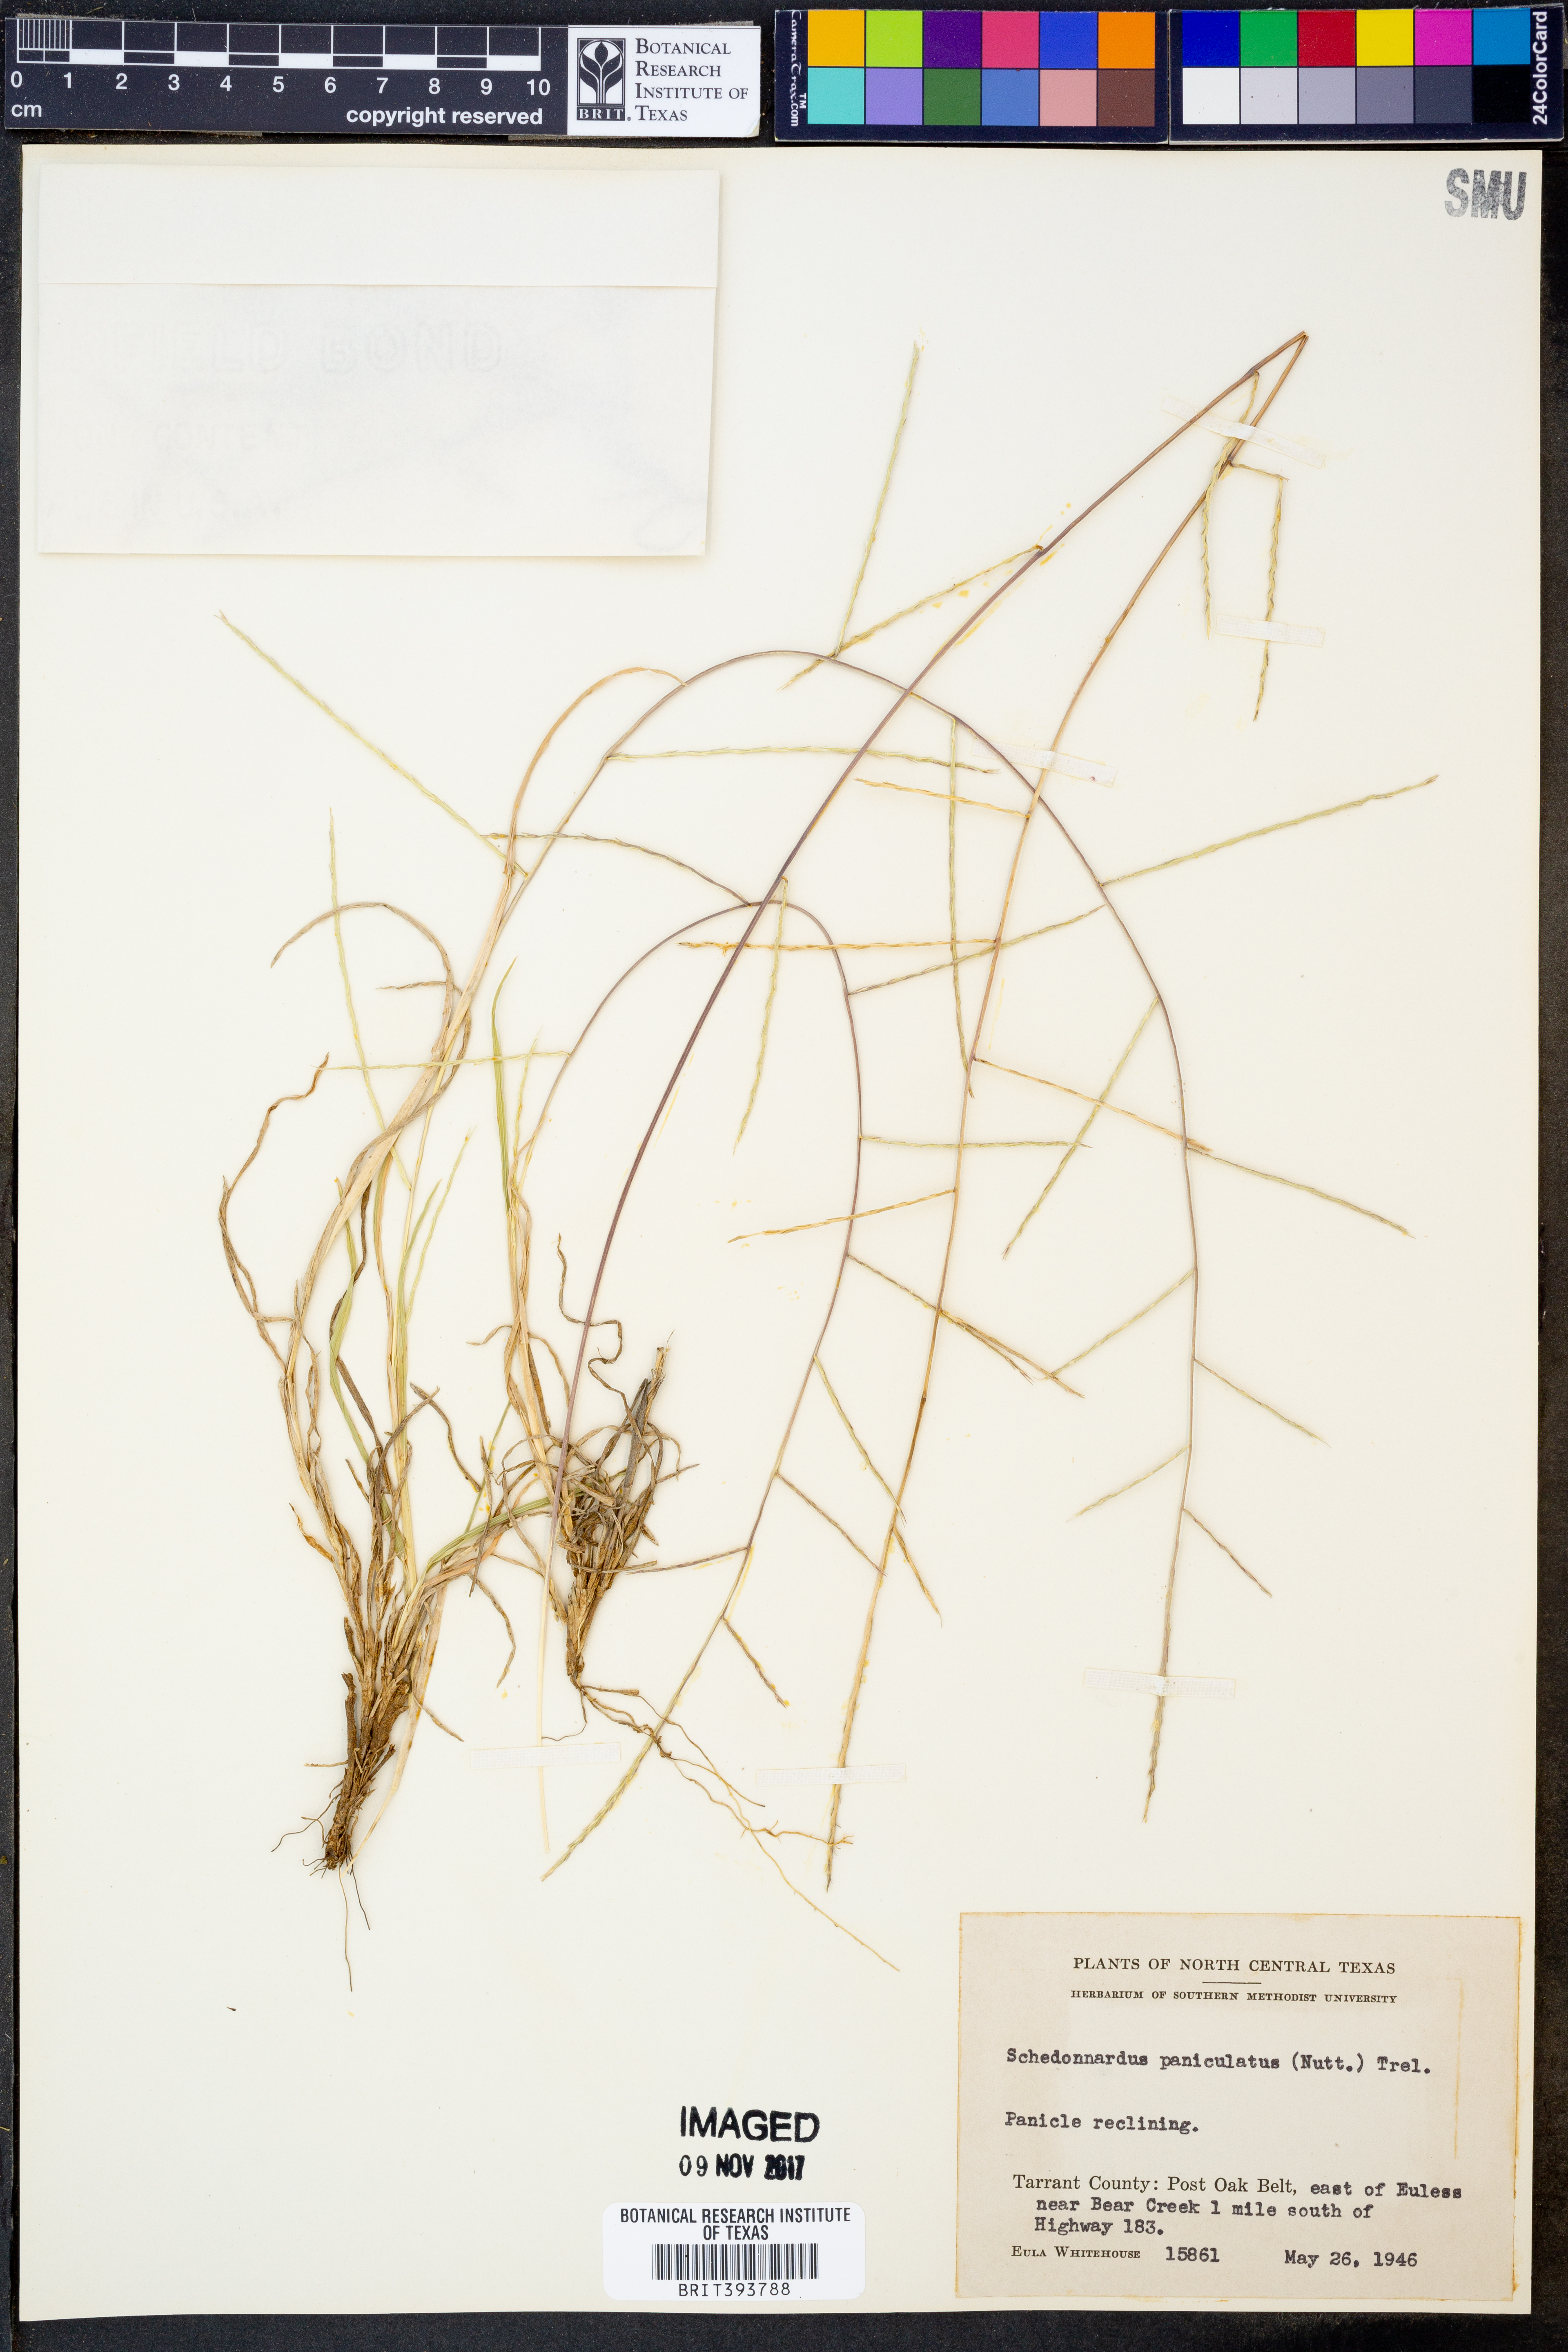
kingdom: Plantae
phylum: Tracheophyta
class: Liliopsida
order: Poales
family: Poaceae
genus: Muhlenbergia
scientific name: Muhlenbergia paniculata
